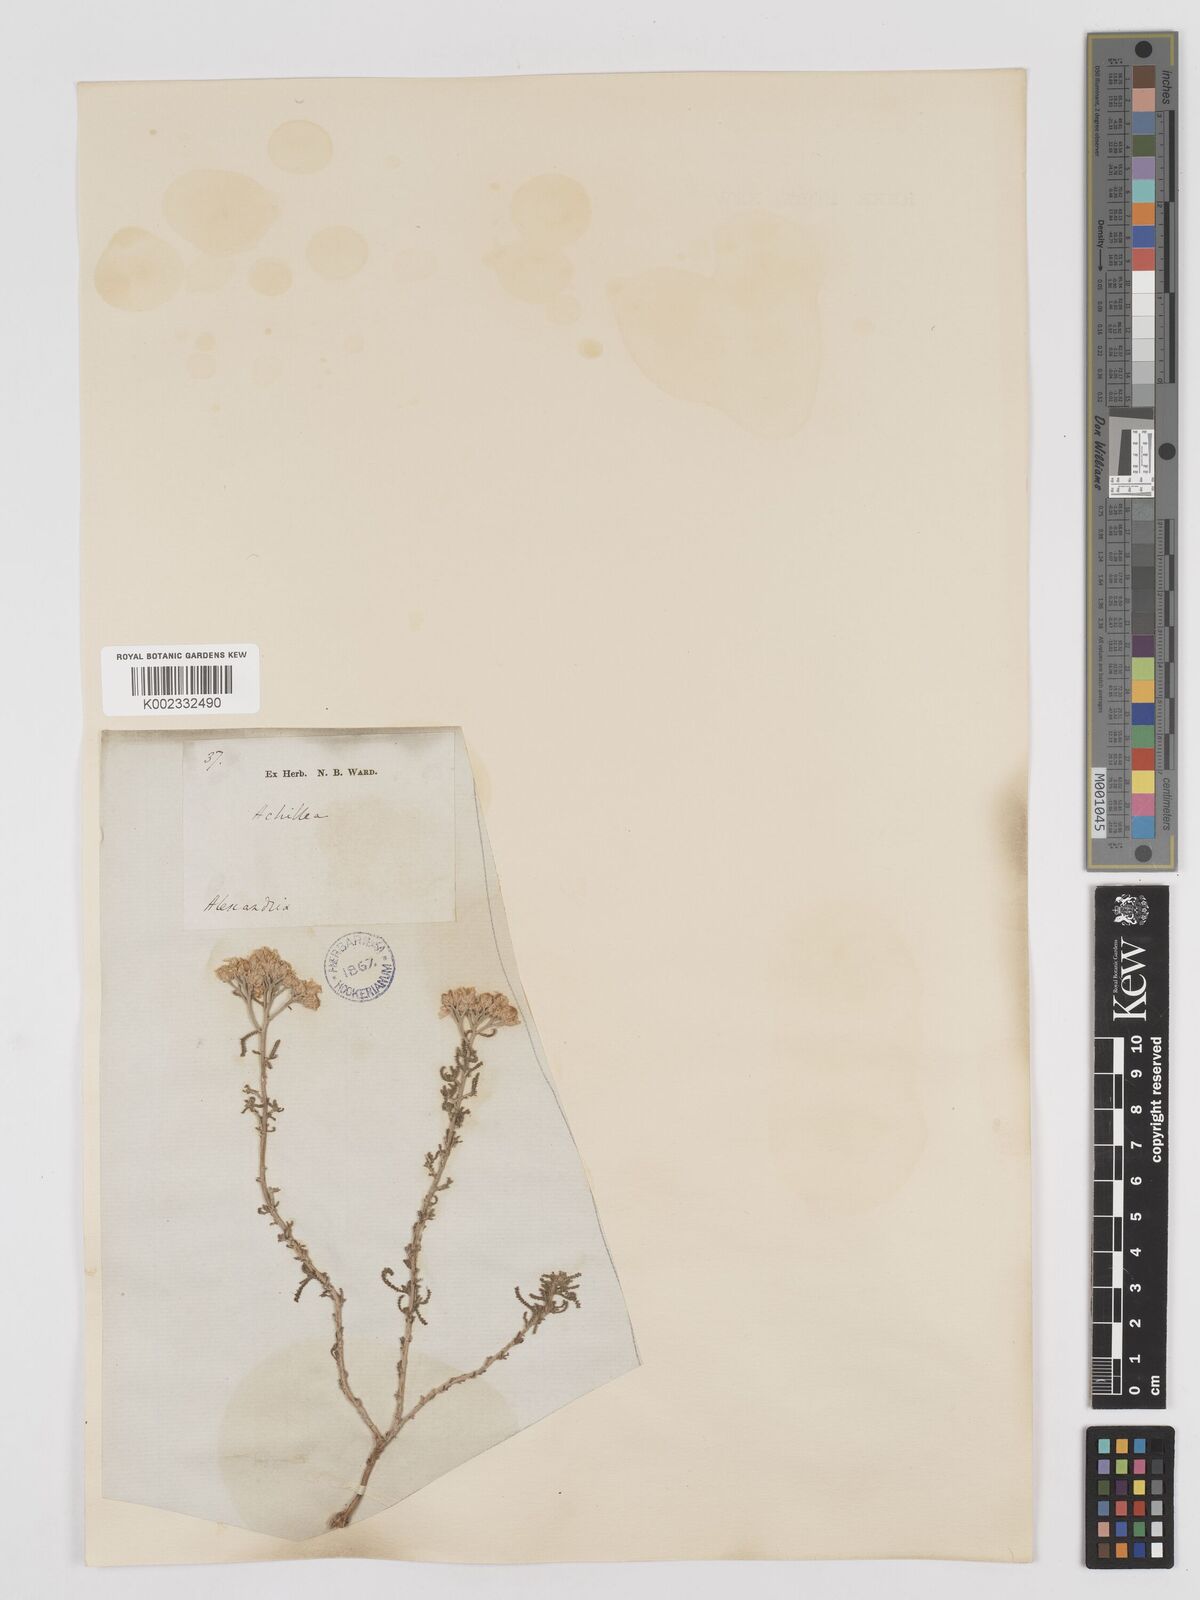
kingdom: Plantae
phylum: Tracheophyta
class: Magnoliopsida
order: Asterales
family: Asteraceae
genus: Achillea
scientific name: Achillea tenuifolia
